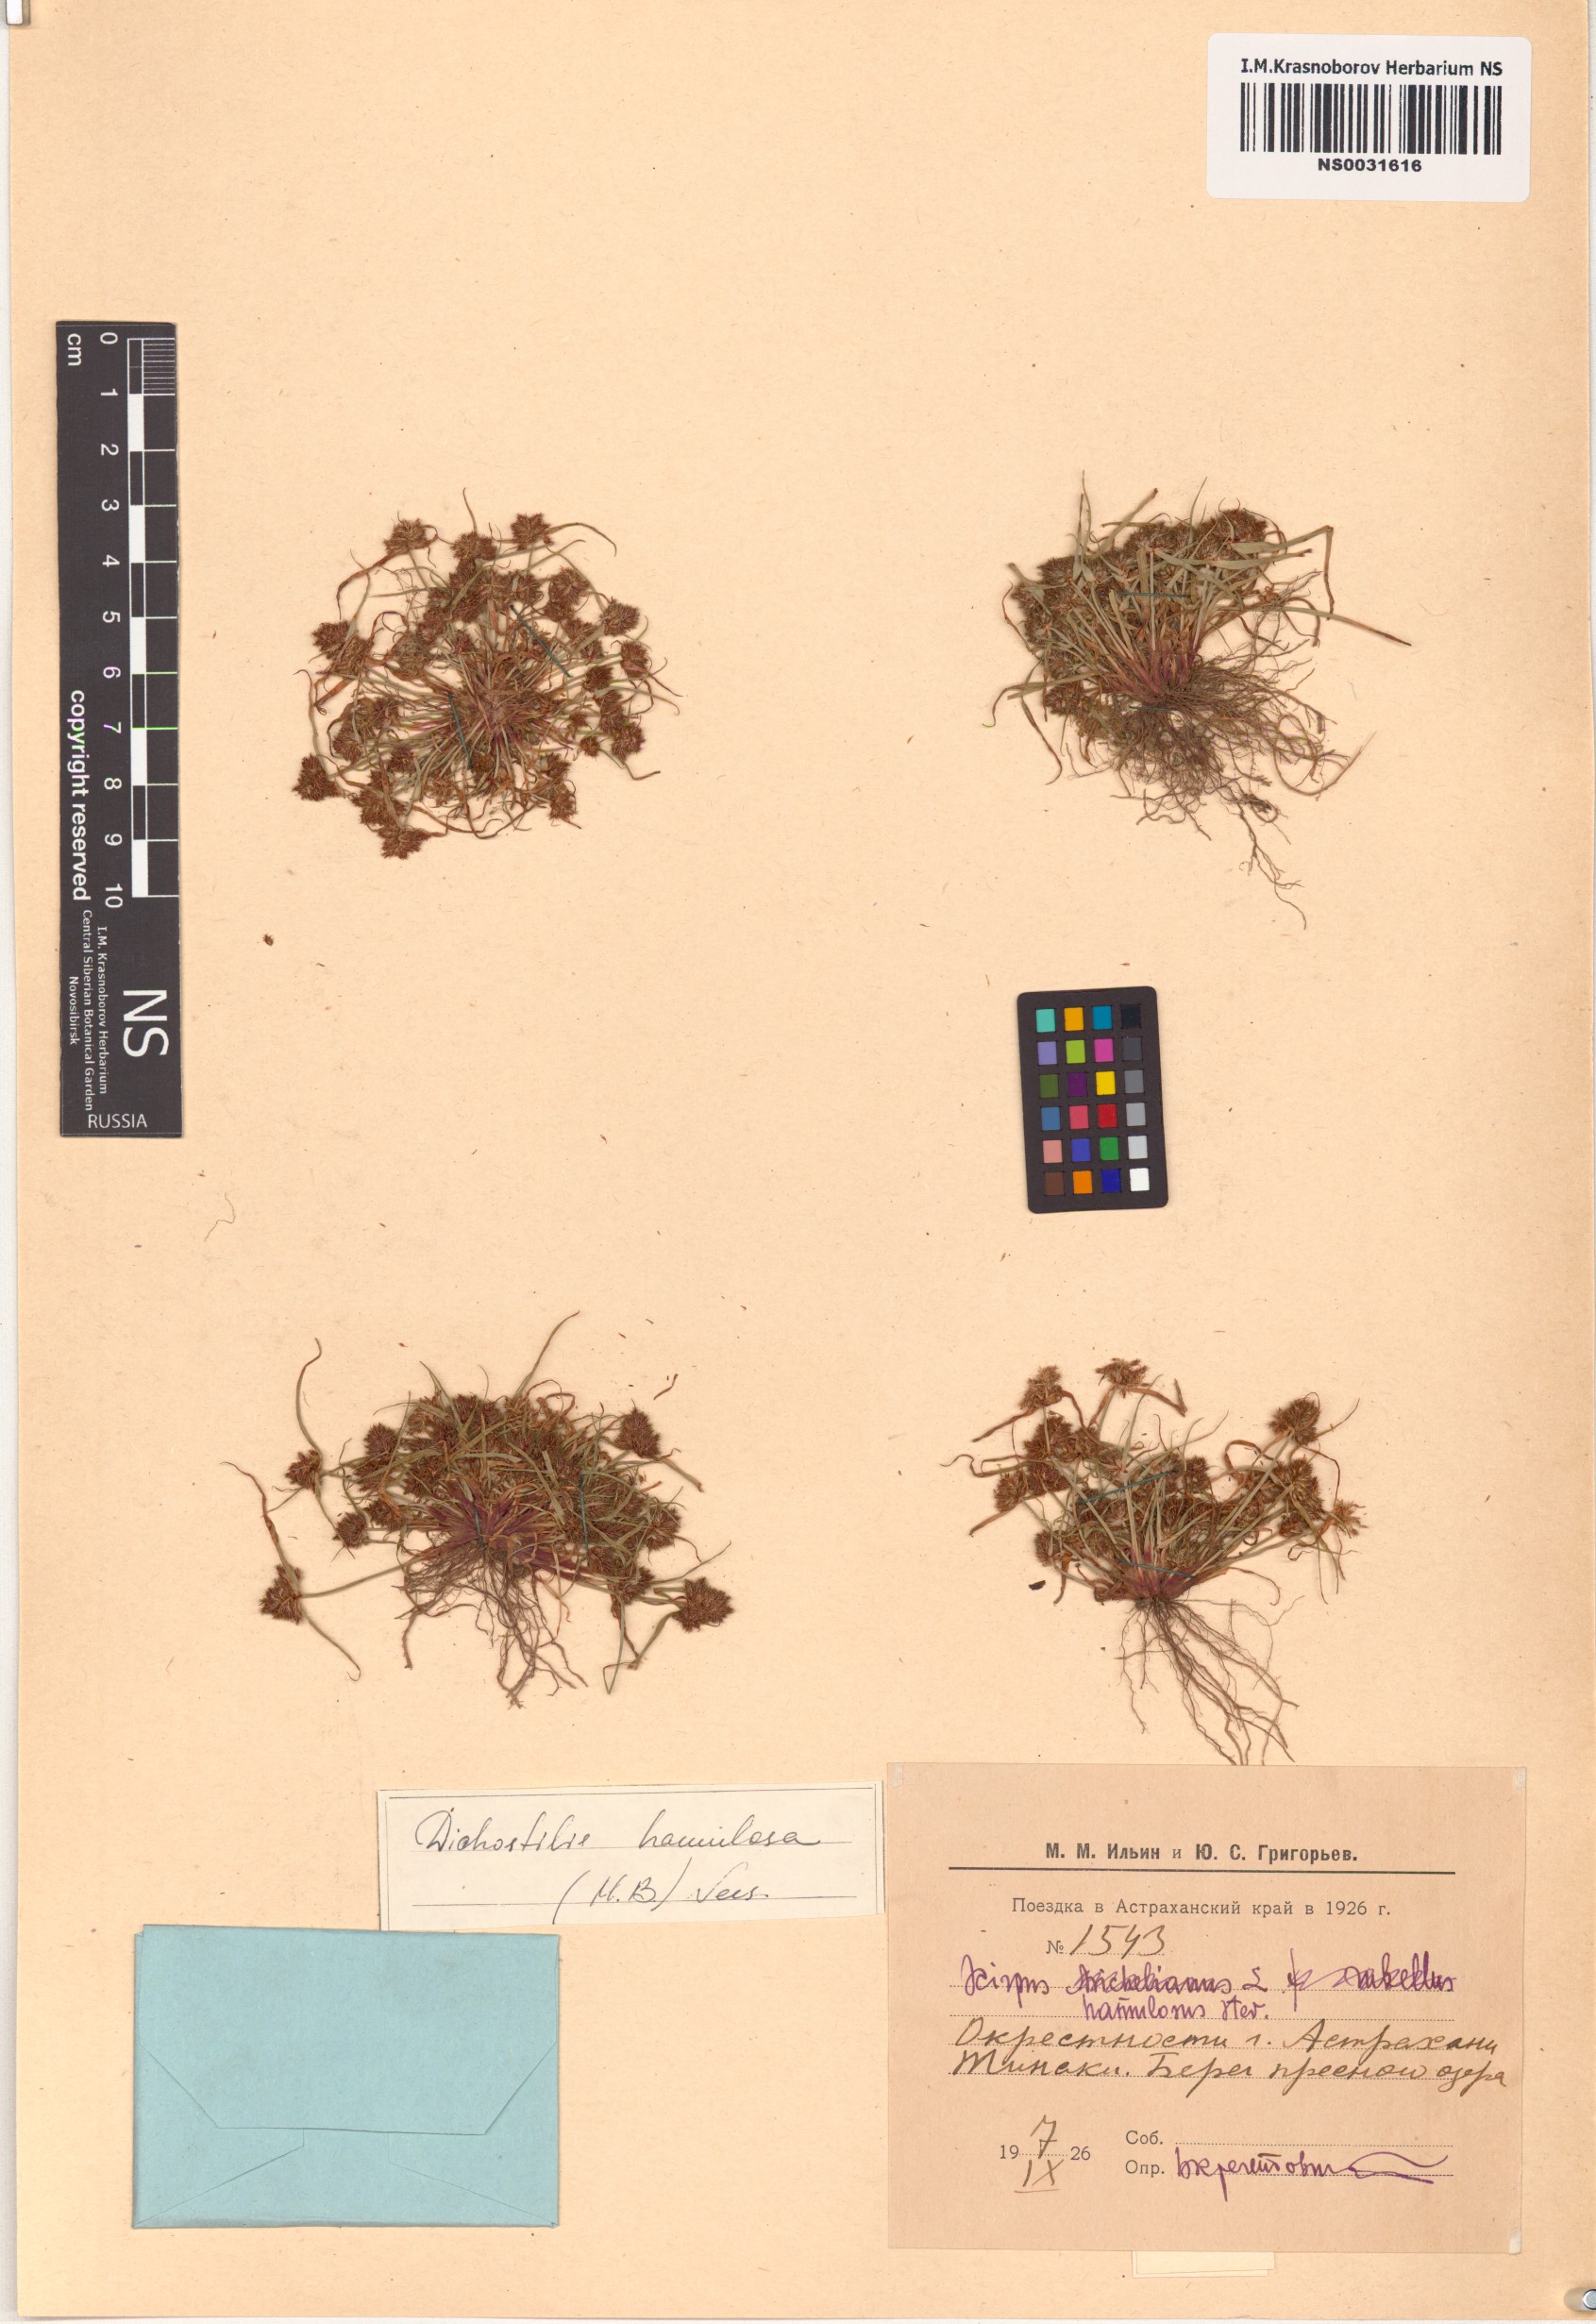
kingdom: Plantae
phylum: Tracheophyta
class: Liliopsida
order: Poales
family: Cyperaceae
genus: Cyperus
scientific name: Cyperus hamulosus
